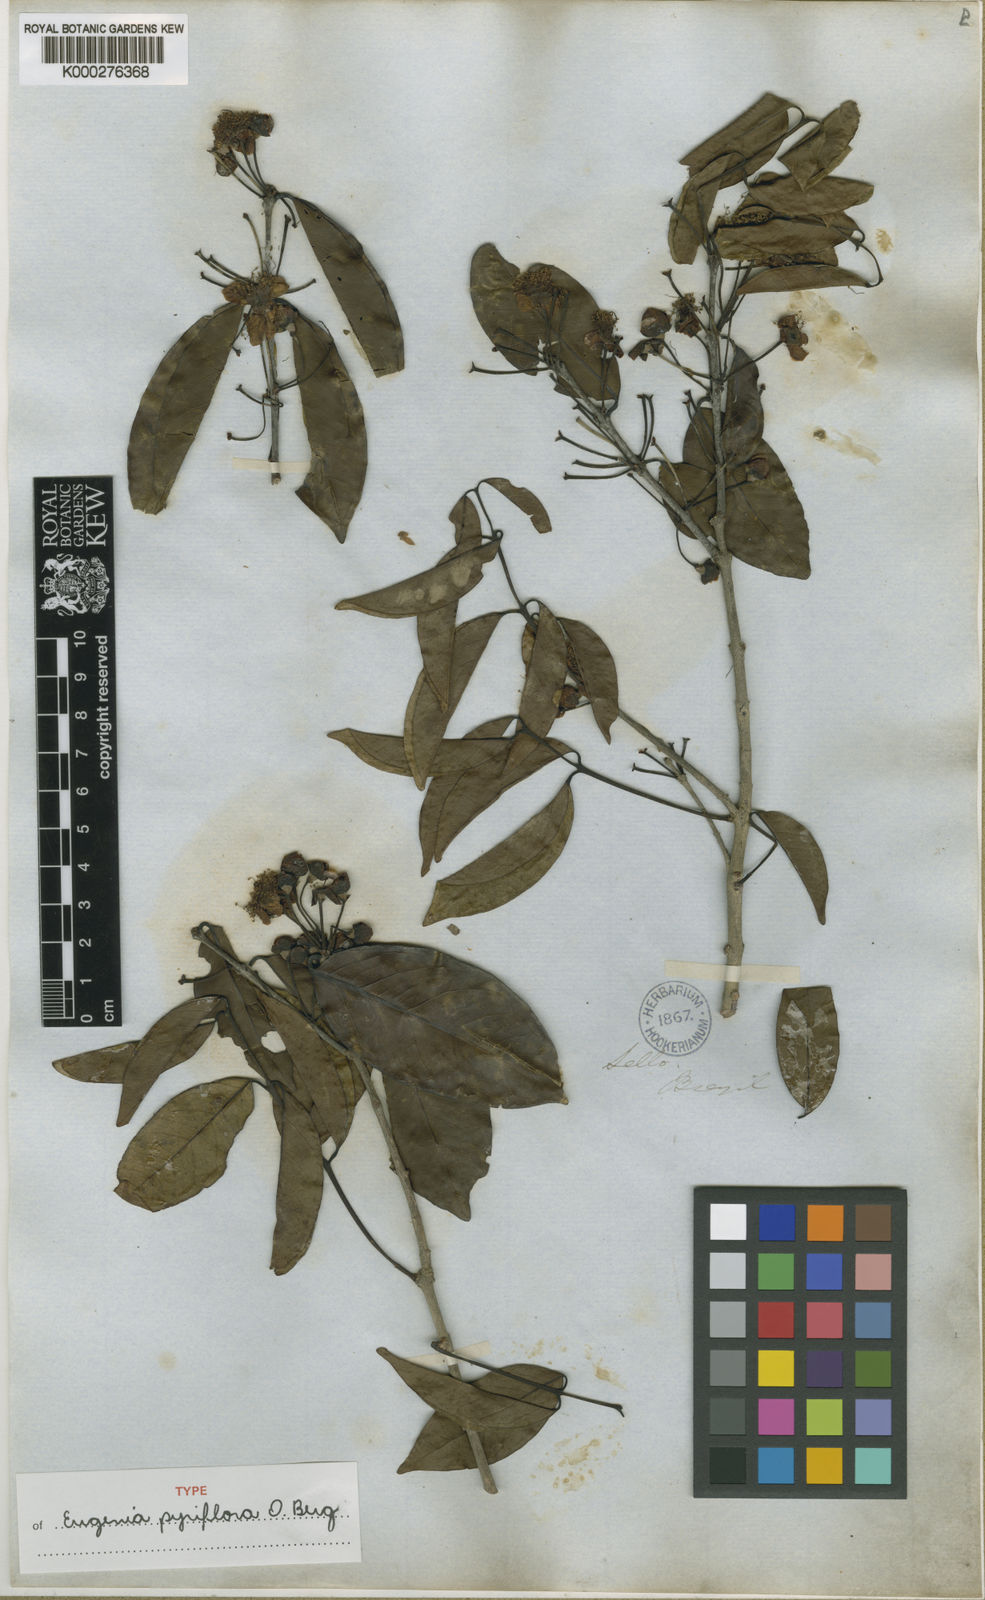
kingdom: Plantae
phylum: Tracheophyta
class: Magnoliopsida
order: Myrtales
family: Myrtaceae
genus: Eugenia
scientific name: Eugenia
